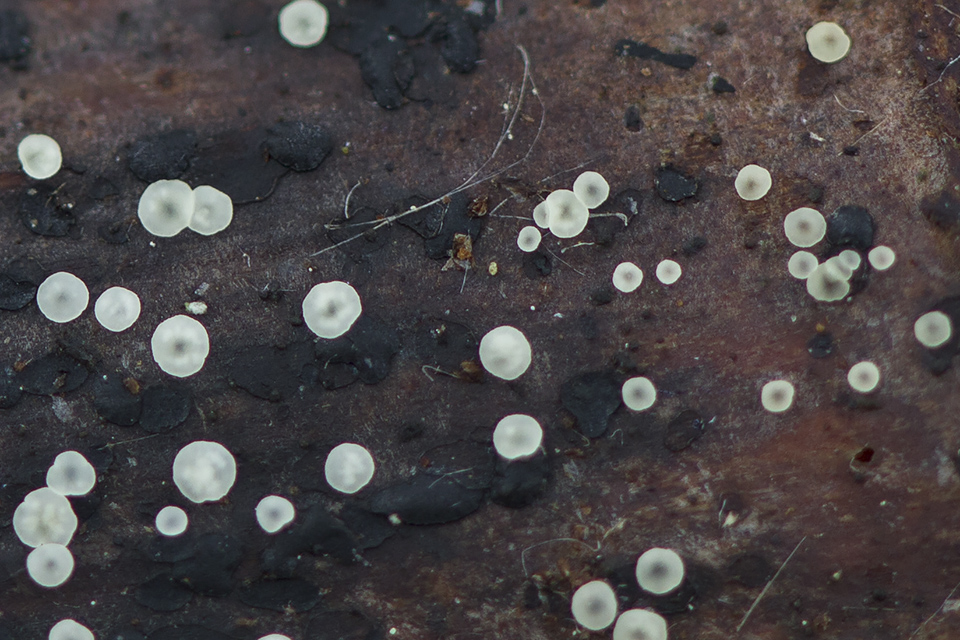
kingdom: Fungi
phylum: Ascomycota
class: Leotiomycetes
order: Helotiales
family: Pezizellaceae
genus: Calycellina
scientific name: Calycellina chlorinella
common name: sartgrøn hårskive
